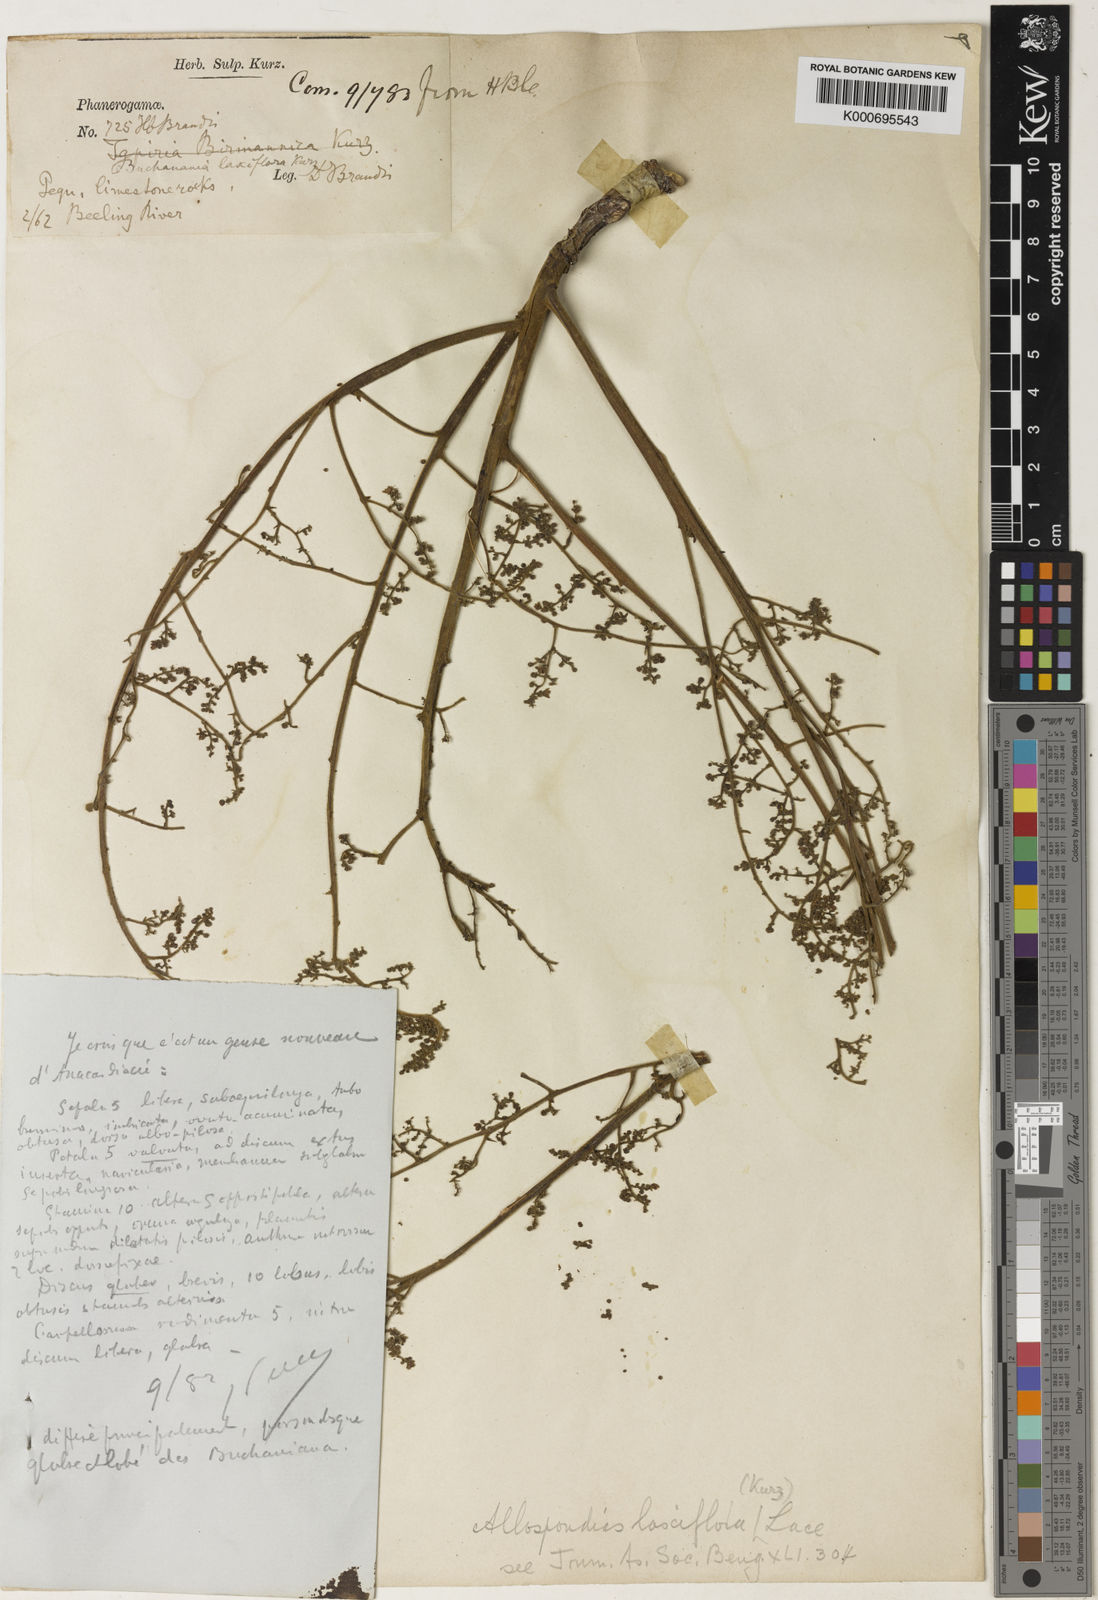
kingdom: Plantae
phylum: Tracheophyta
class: Magnoliopsida
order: Sapindales
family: Anacardiaceae
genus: Allospondias
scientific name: Allospondias laxiflora
